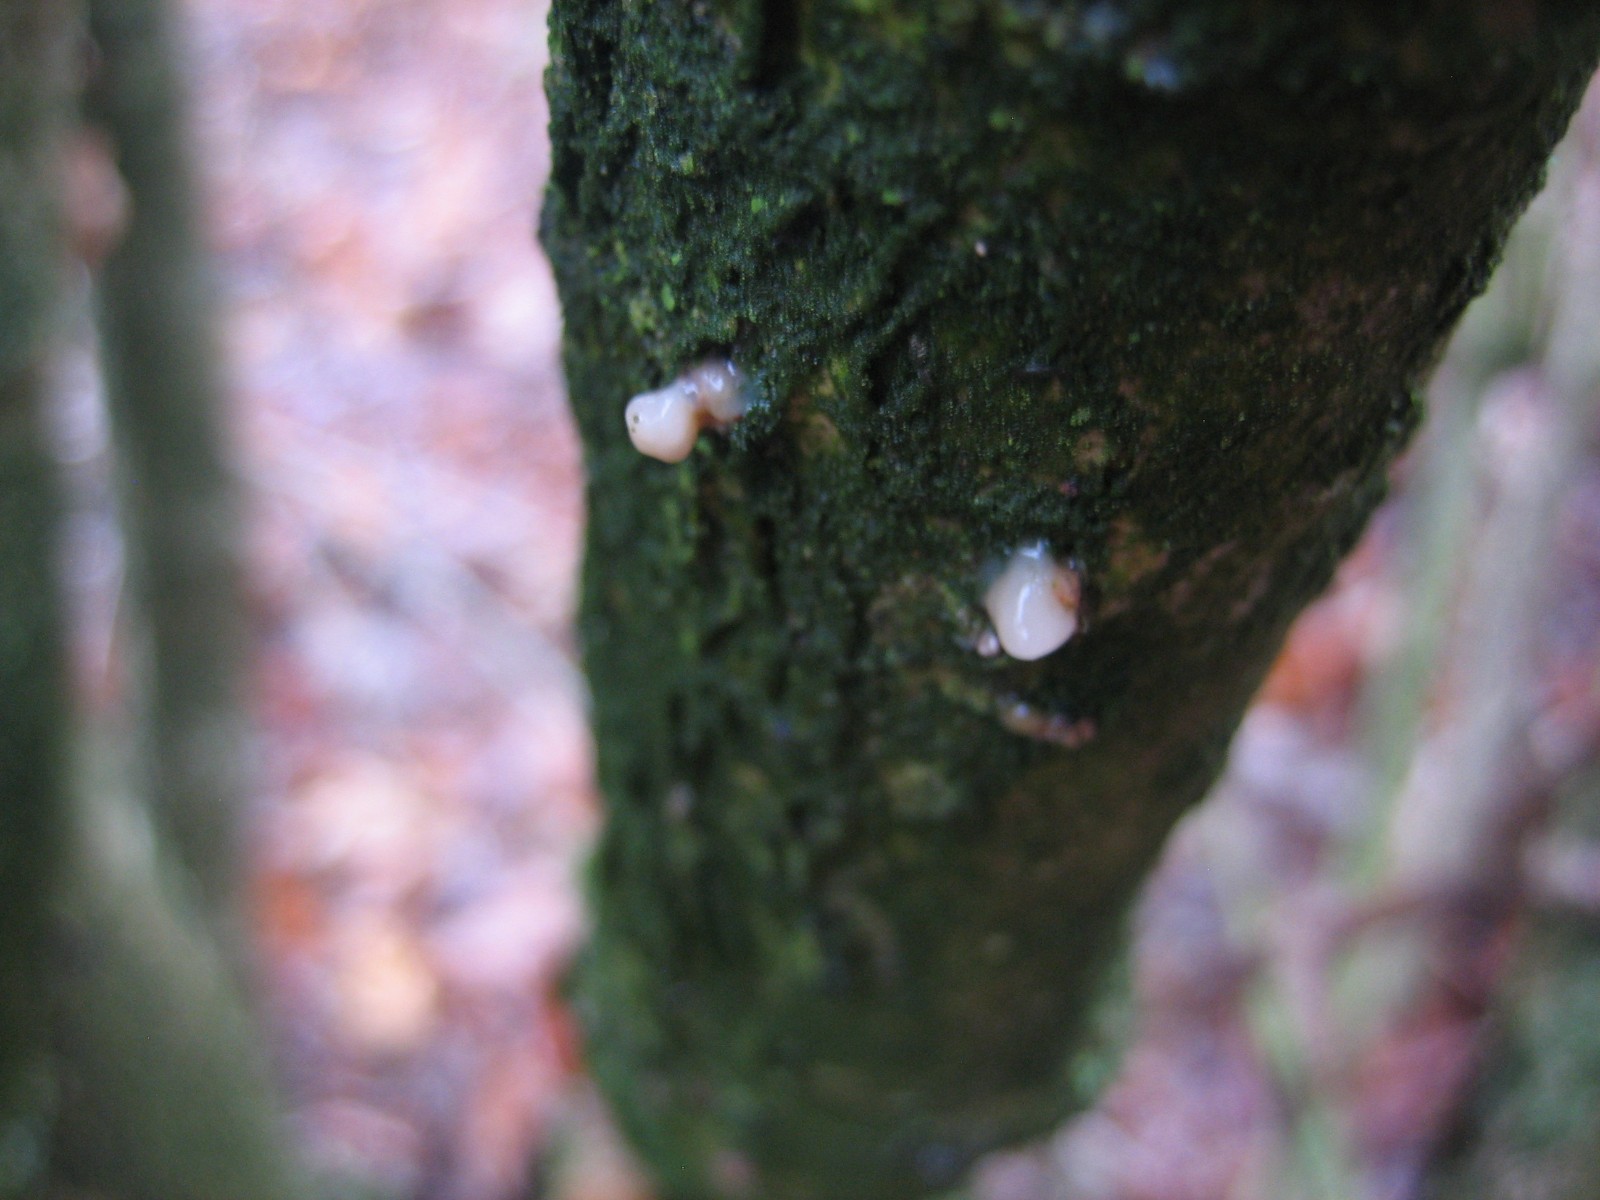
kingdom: Fungi
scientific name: Fungi
